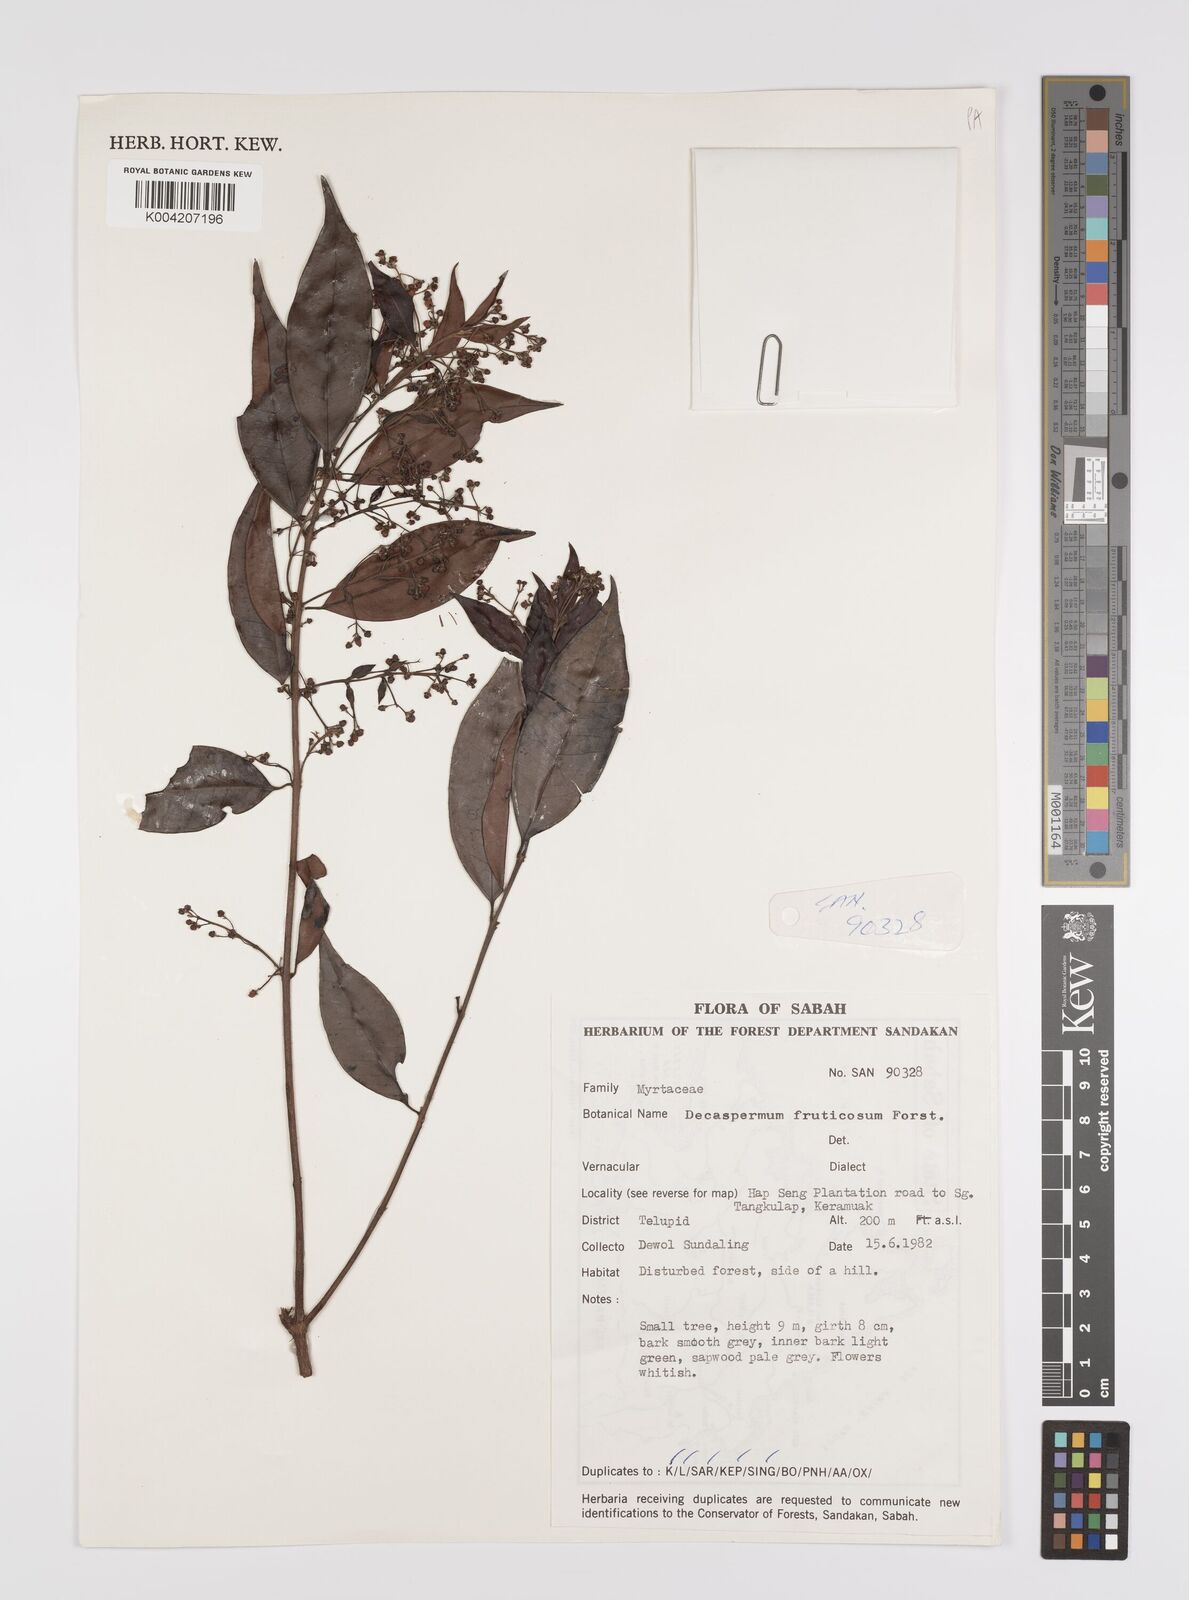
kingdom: Plantae
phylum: Tracheophyta
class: Magnoliopsida
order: Myrtales
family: Myrtaceae
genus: Decaspermum
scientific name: Decaspermum parviflorum
